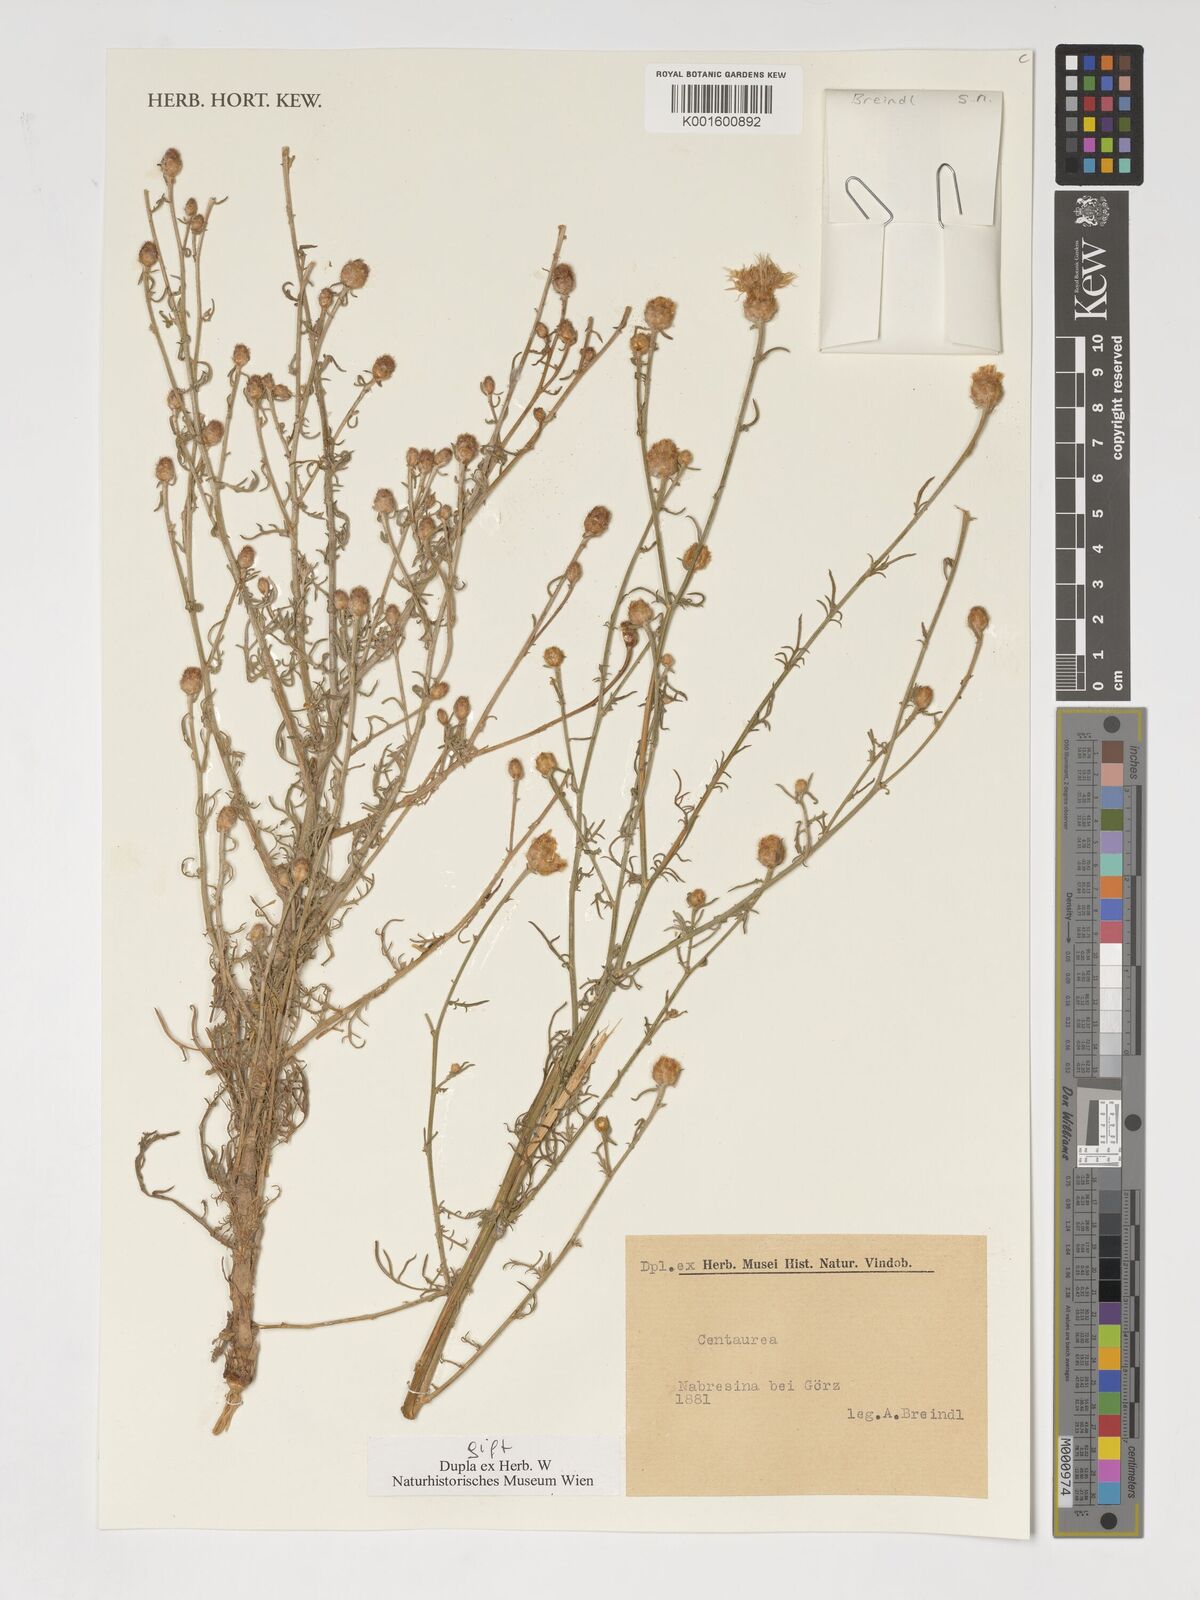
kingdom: Plantae
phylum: Tracheophyta
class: Magnoliopsida
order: Asterales
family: Asteraceae
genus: Centaurea
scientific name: Centaurea
